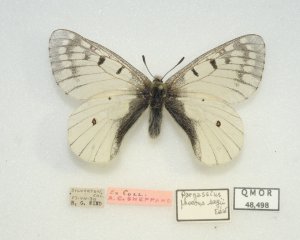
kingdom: Animalia
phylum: Arthropoda
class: Insecta
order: Lepidoptera
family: Papilionidae
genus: Parnassius
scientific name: Parnassius smintheus
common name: Rocky Mountain Parnassian
